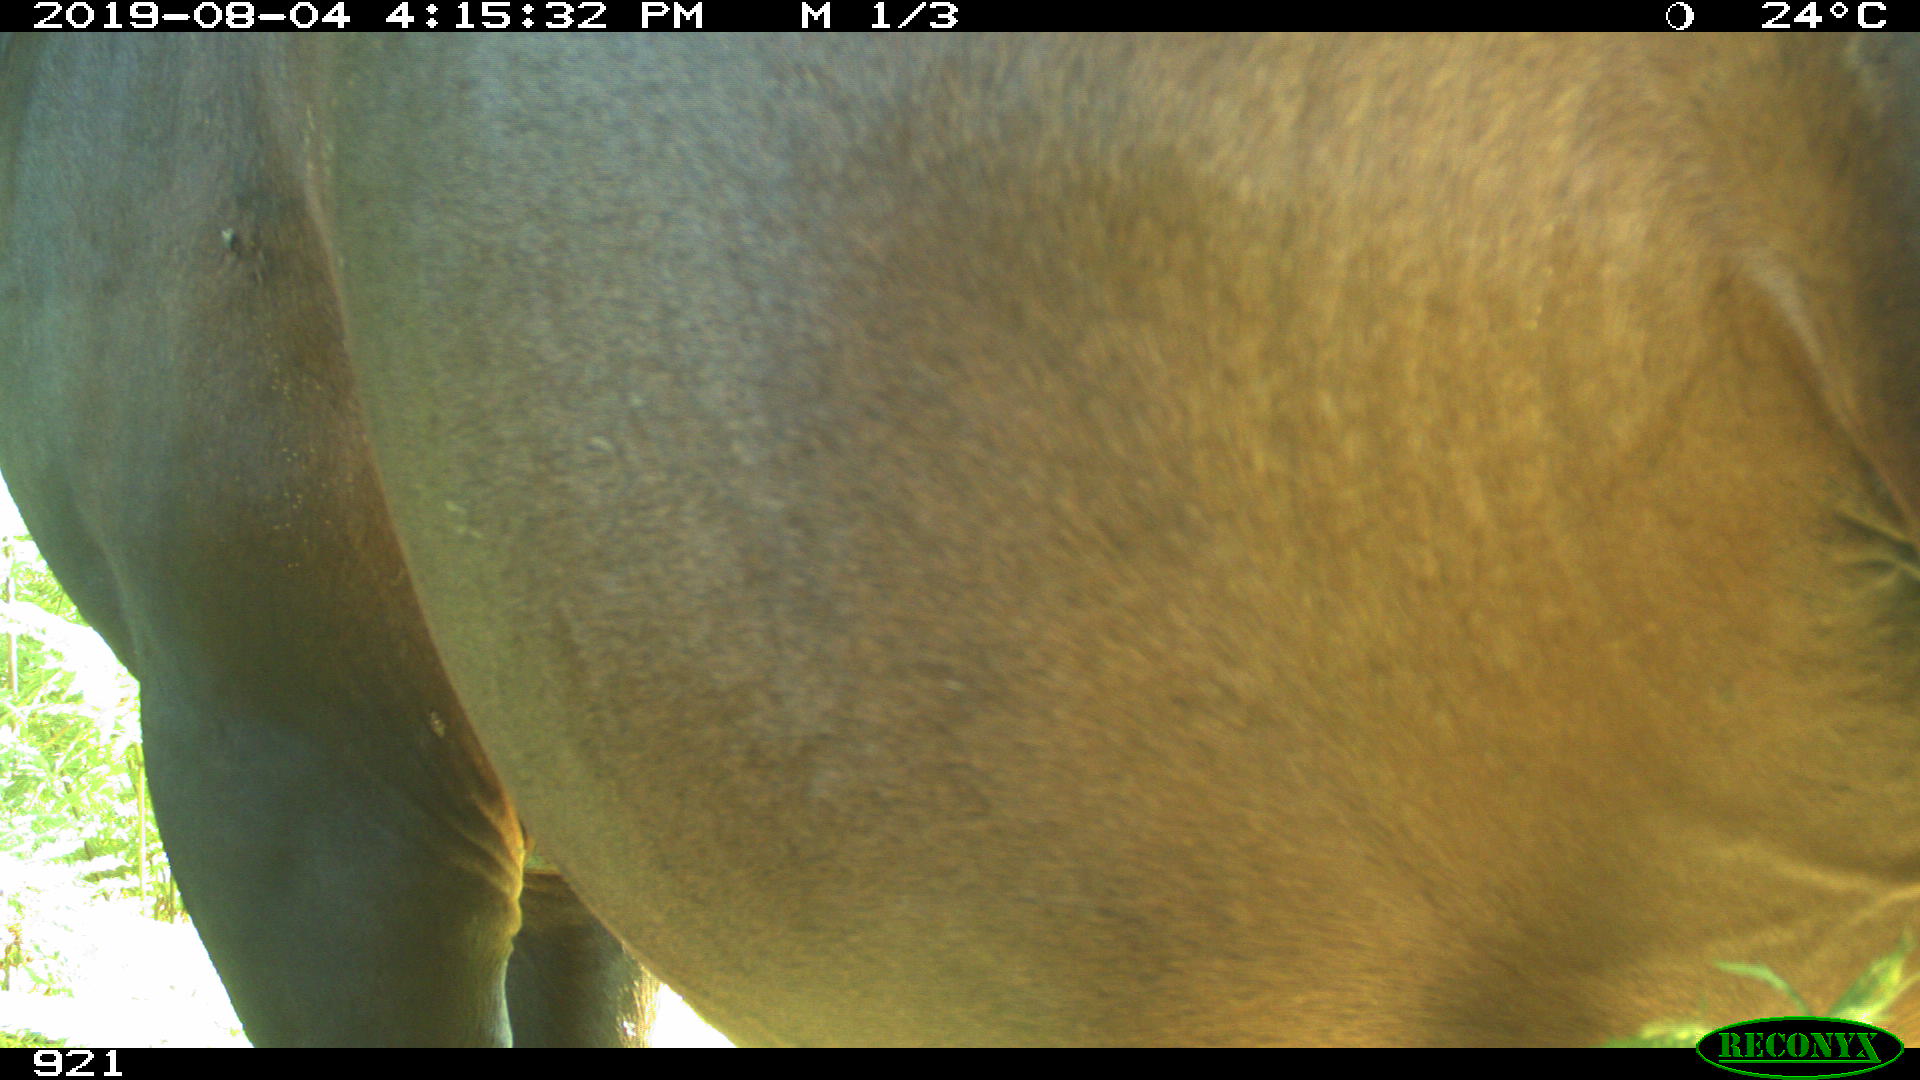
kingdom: Animalia
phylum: Chordata
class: Mammalia
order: Perissodactyla
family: Equidae
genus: Equus
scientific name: Equus caballus
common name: Horse
